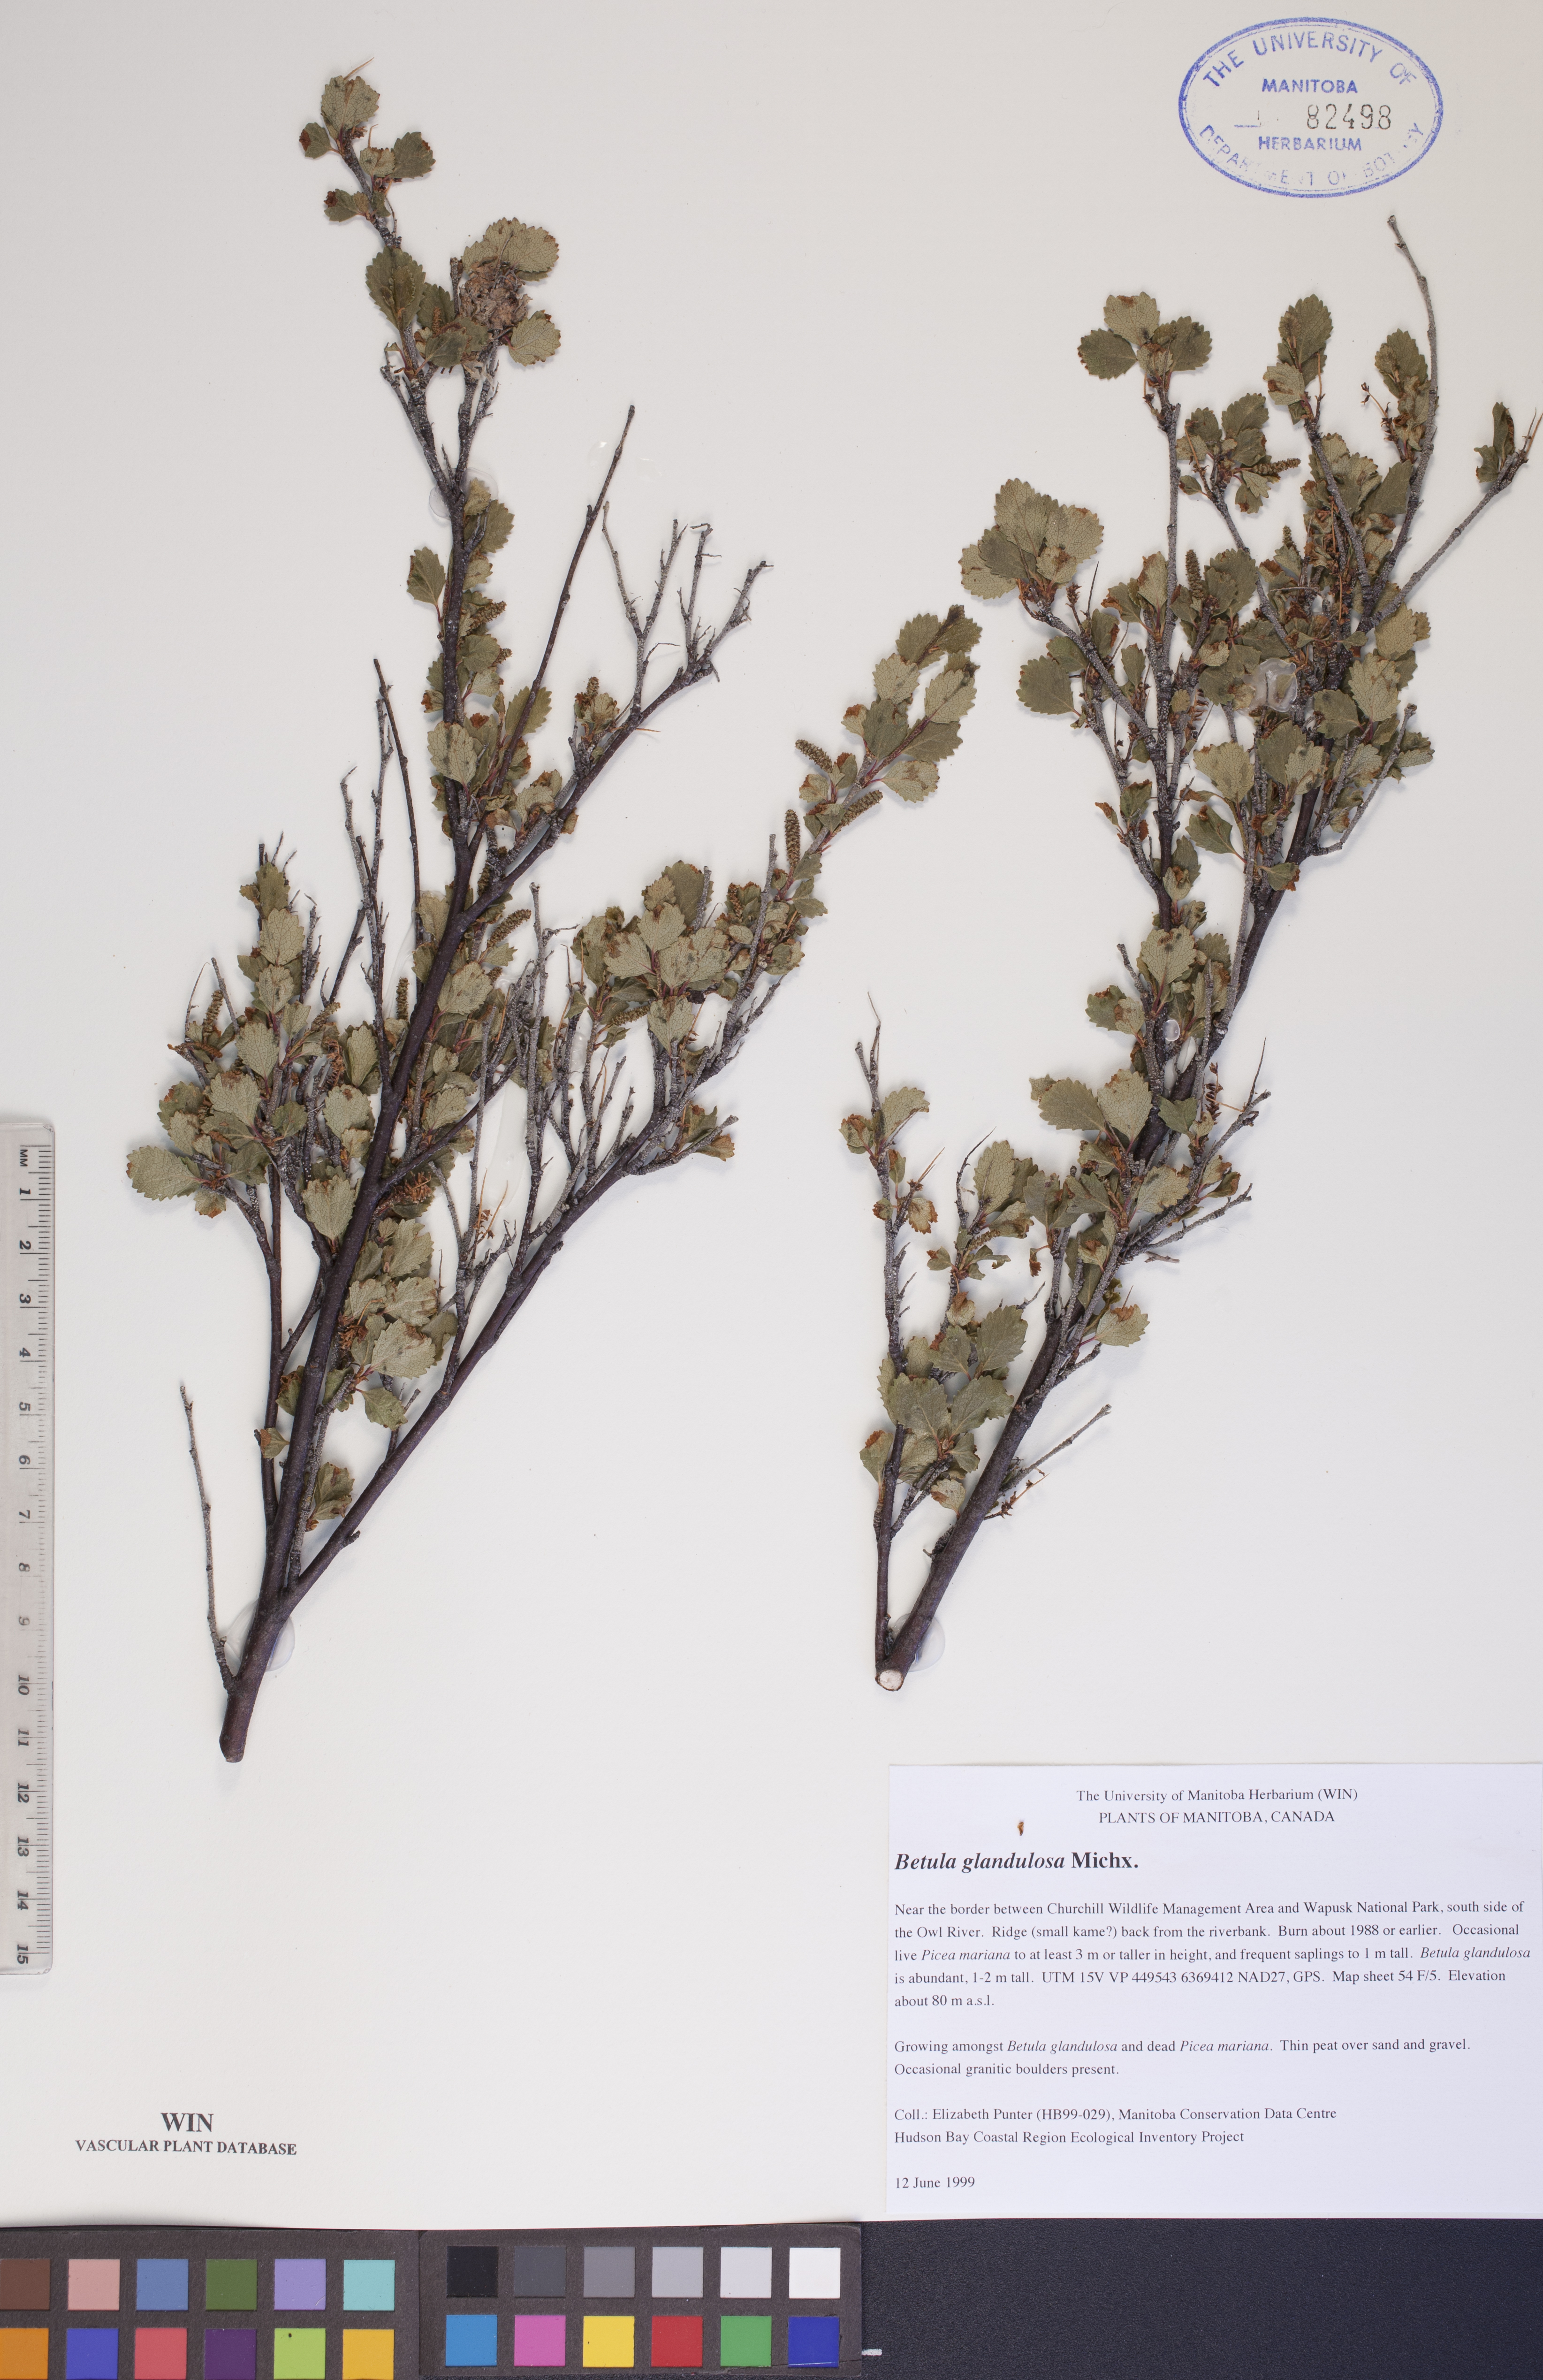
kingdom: Plantae
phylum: Tracheophyta
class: Magnoliopsida
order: Fagales
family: Betulaceae
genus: Betula
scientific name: Betula glandulosa
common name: Dwarf birch
